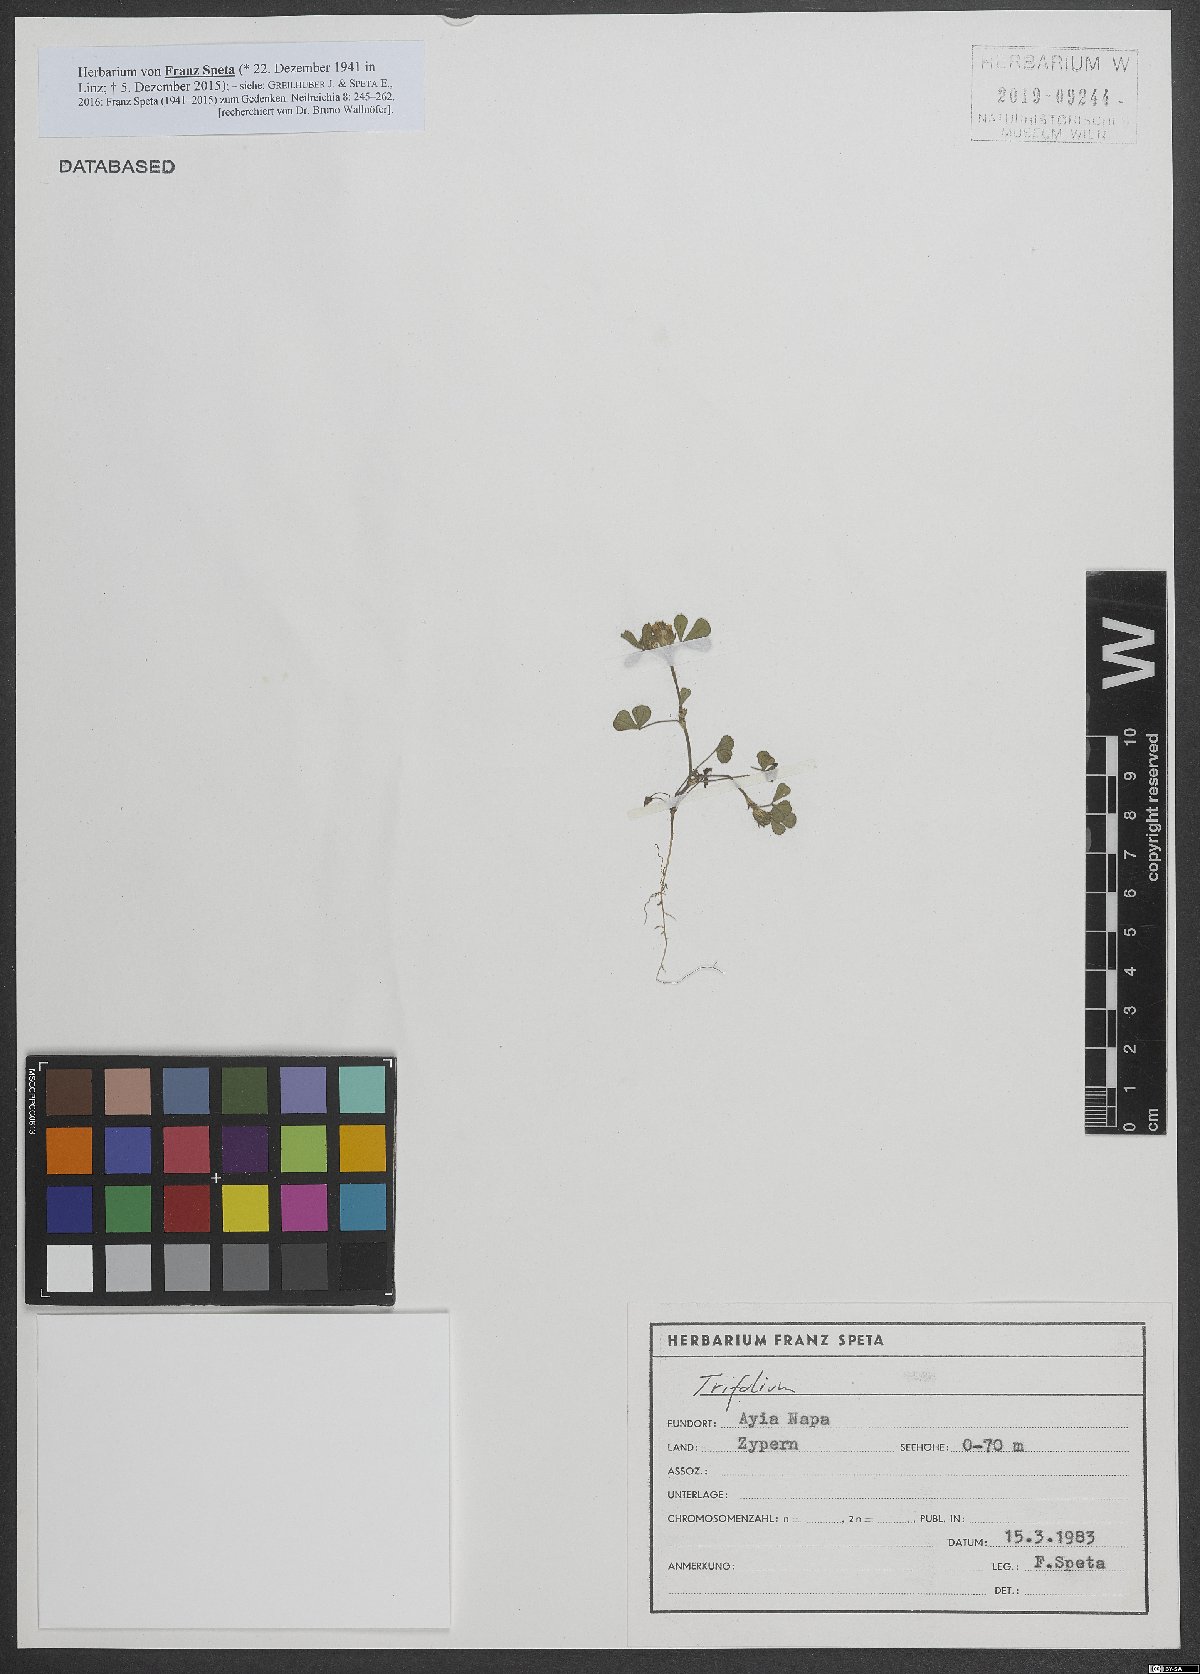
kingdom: Plantae
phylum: Tracheophyta
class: Magnoliopsida
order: Fabales
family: Fabaceae
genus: Trifolium
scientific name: Trifolium scabrum
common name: Rough clover
